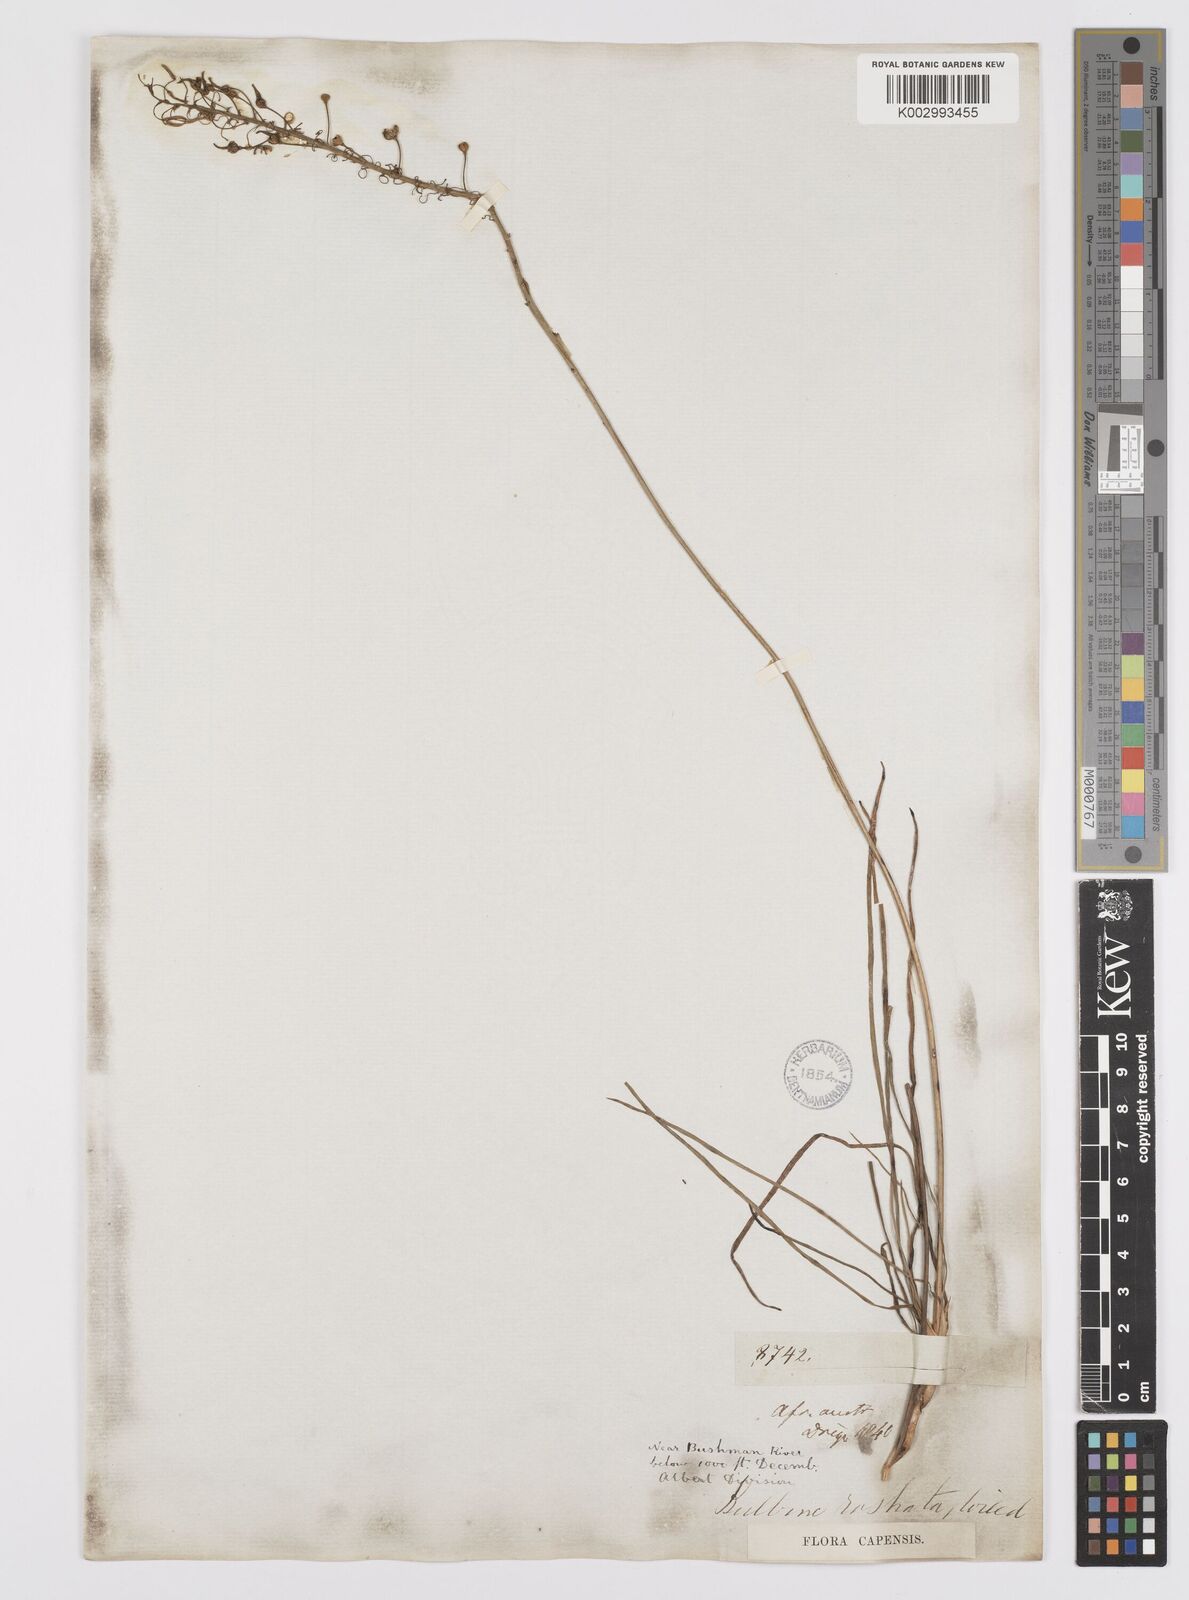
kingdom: Plantae
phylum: Tracheophyta
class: Liliopsida
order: Asparagales
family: Asphodelaceae
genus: Bulbine
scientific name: Bulbine frutescens
